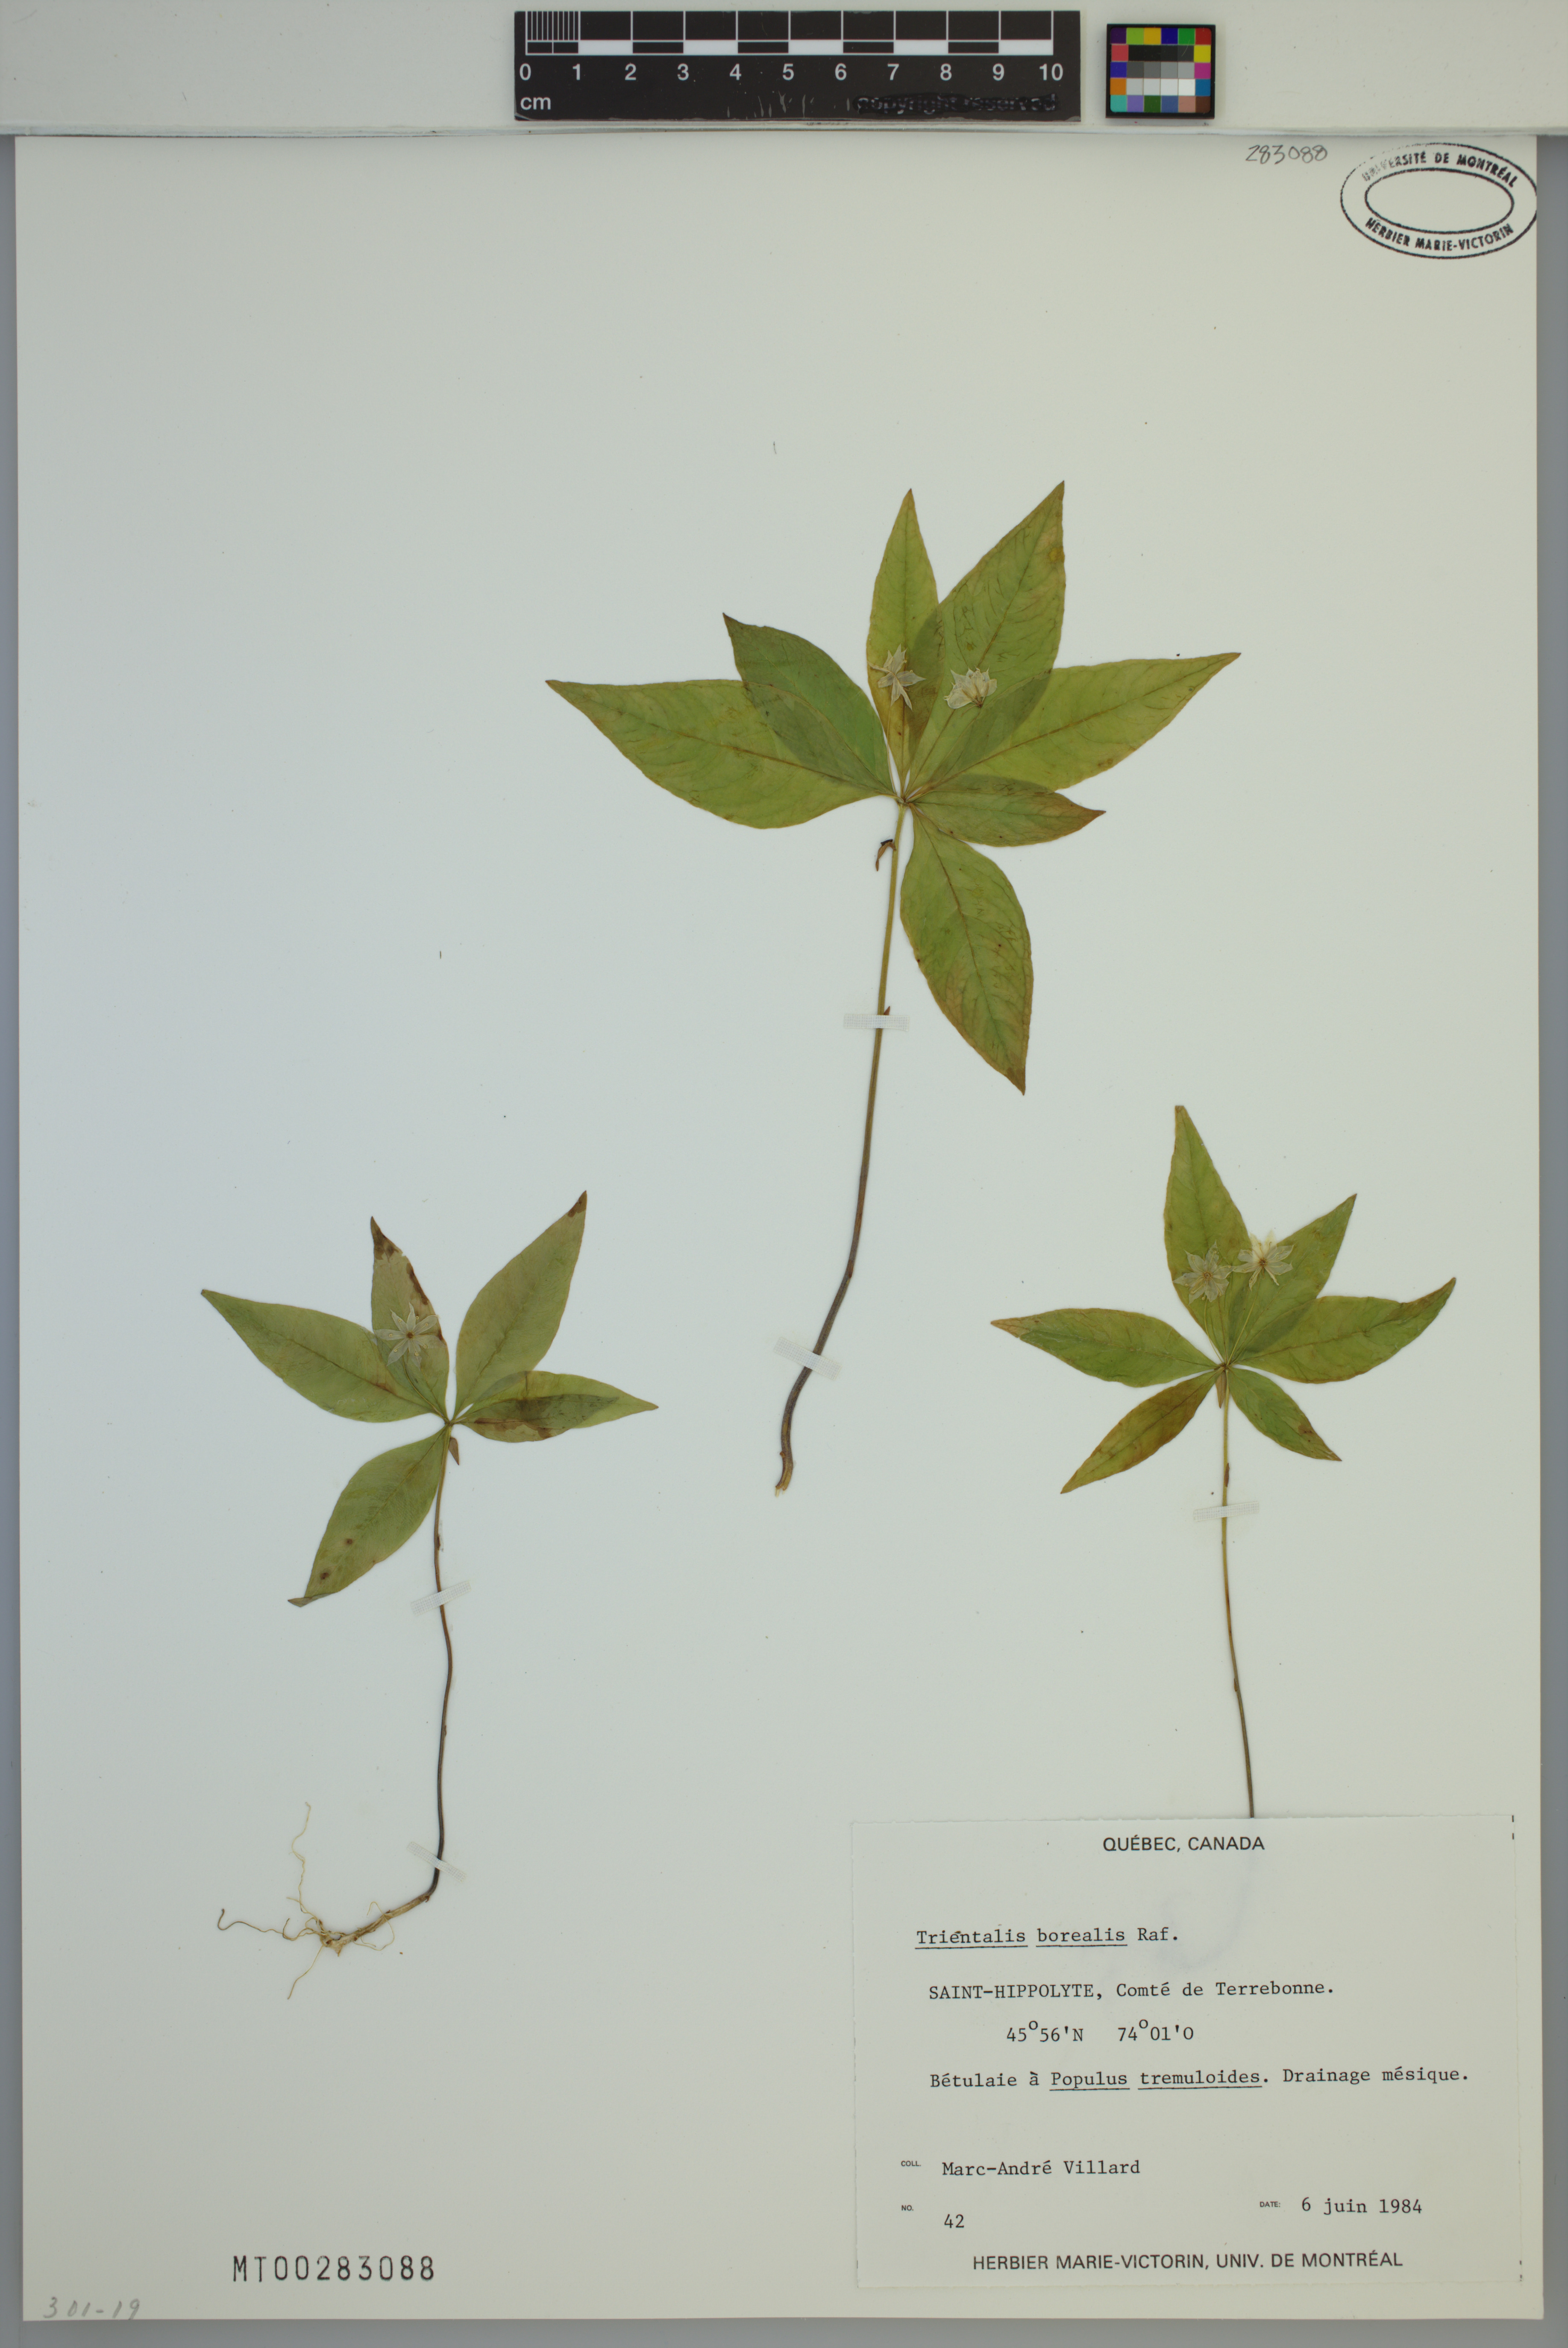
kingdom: Plantae
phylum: Tracheophyta
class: Magnoliopsida
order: Ericales
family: Primulaceae
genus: Lysimachia
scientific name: Lysimachia borealis
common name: American starflower
